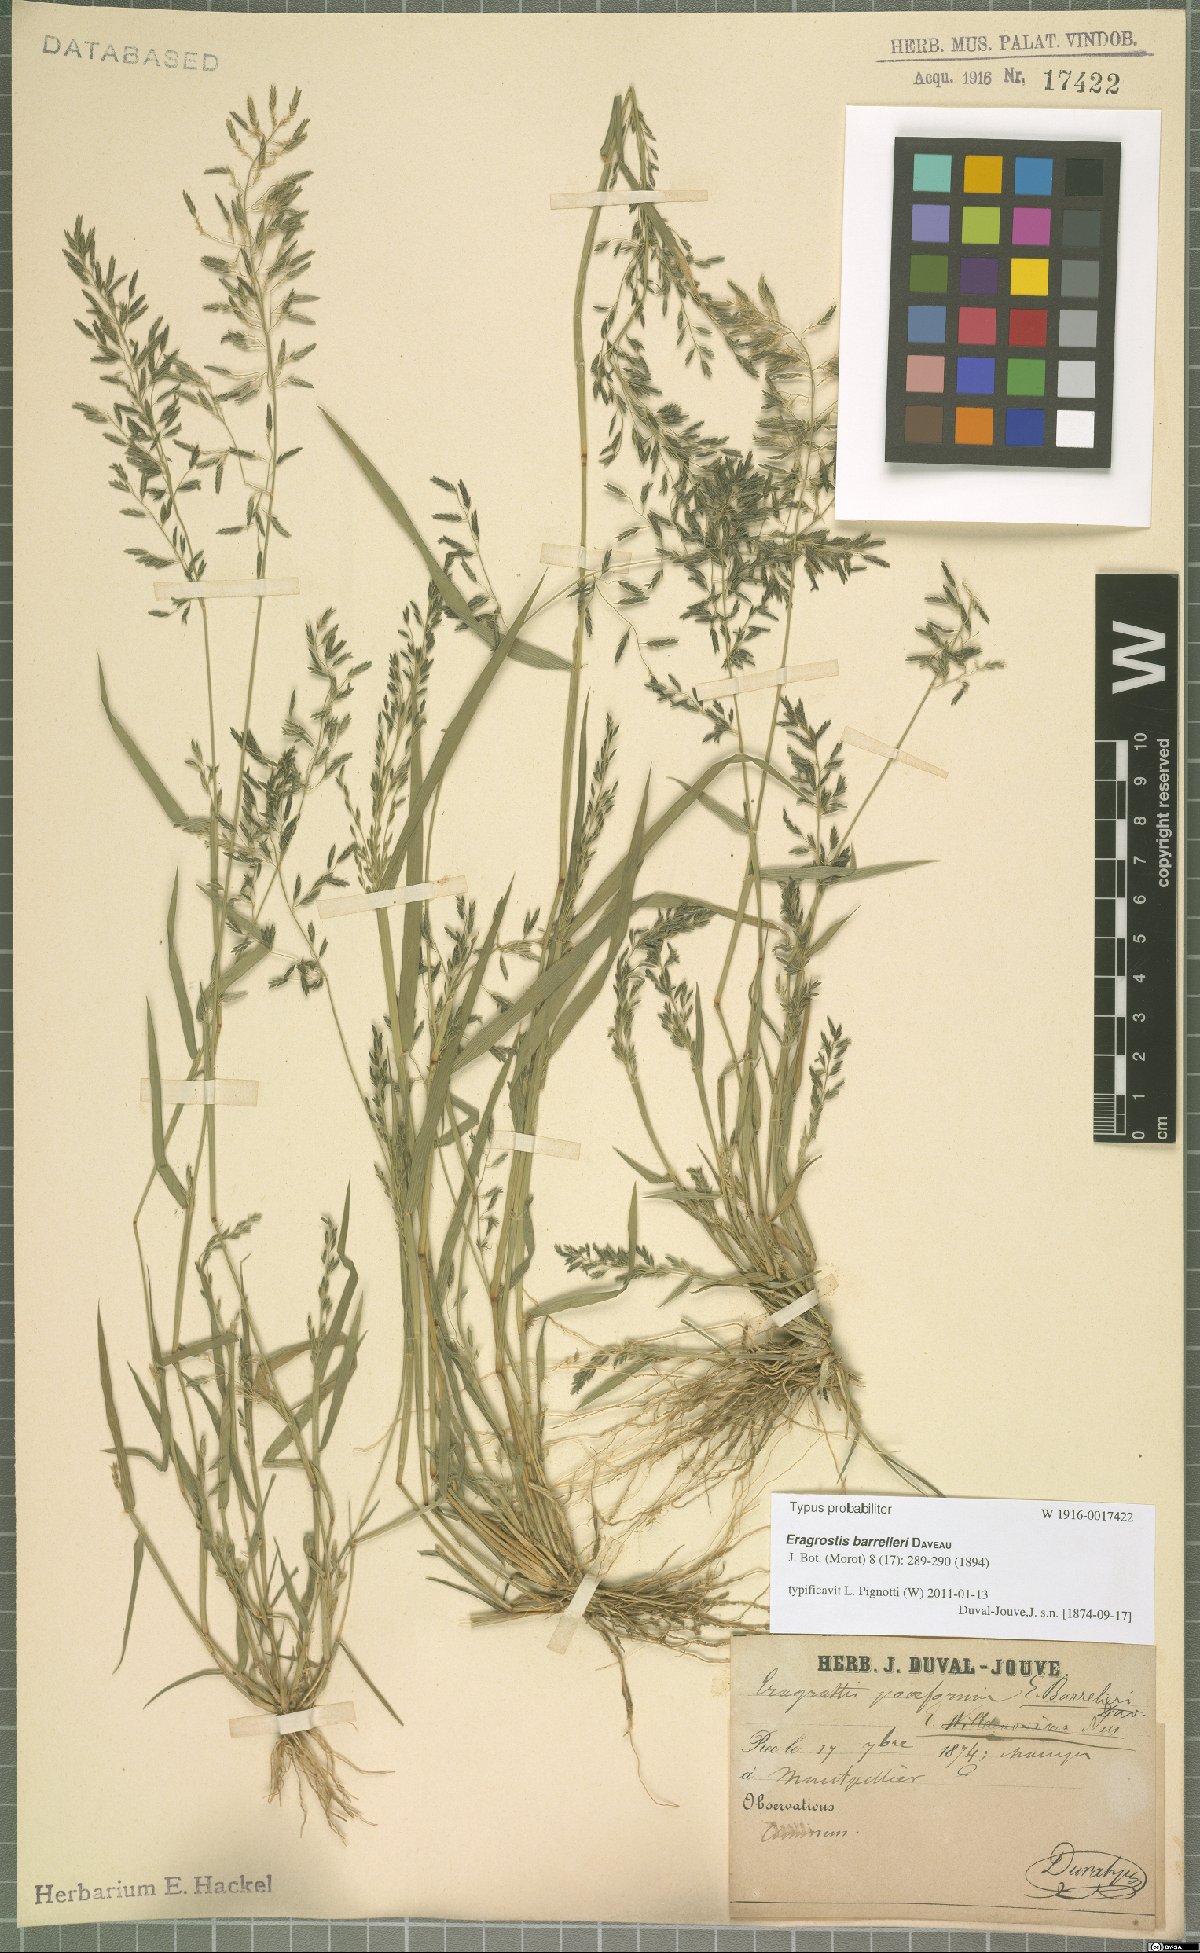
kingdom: Plantae
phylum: Tracheophyta
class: Liliopsida
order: Poales
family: Poaceae
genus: Eragrostis
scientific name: Eragrostis barrelieri
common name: Mediterranean lovegrass
